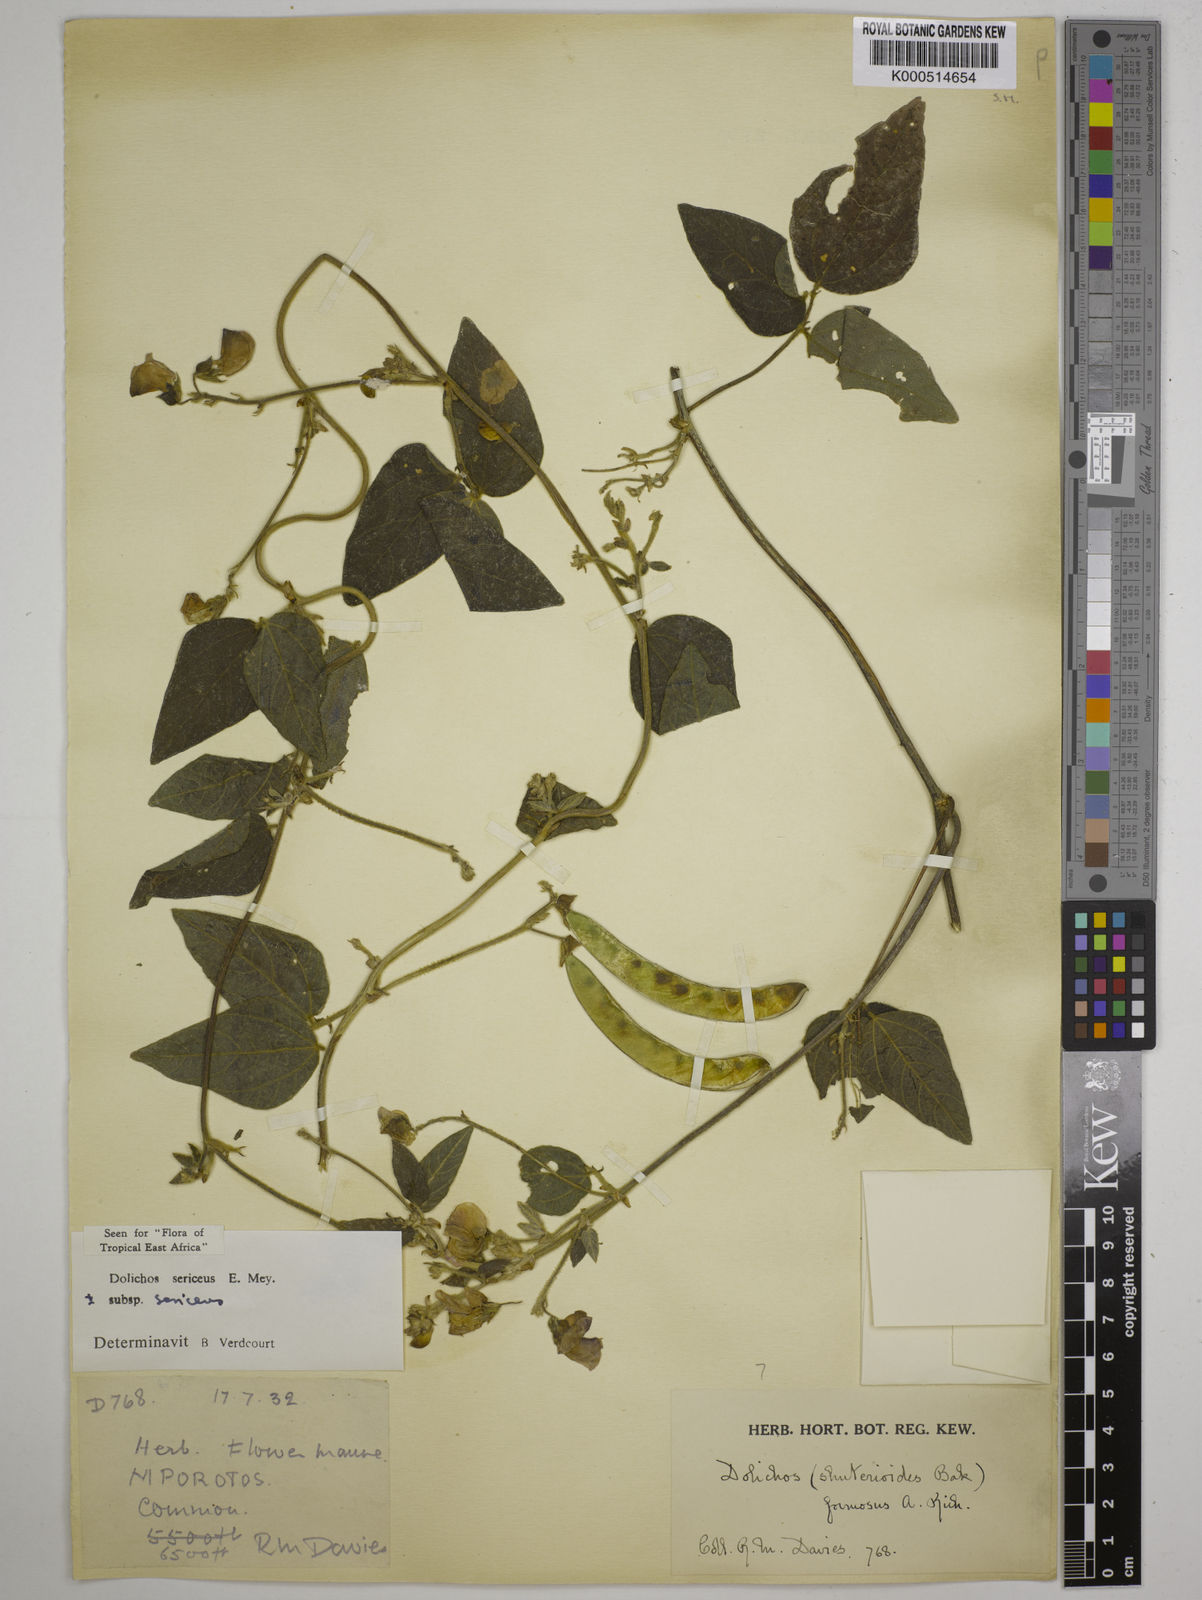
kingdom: Plantae
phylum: Tracheophyta
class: Magnoliopsida
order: Fabales
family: Fabaceae
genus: Dolichos
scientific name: Dolichos sericeus
